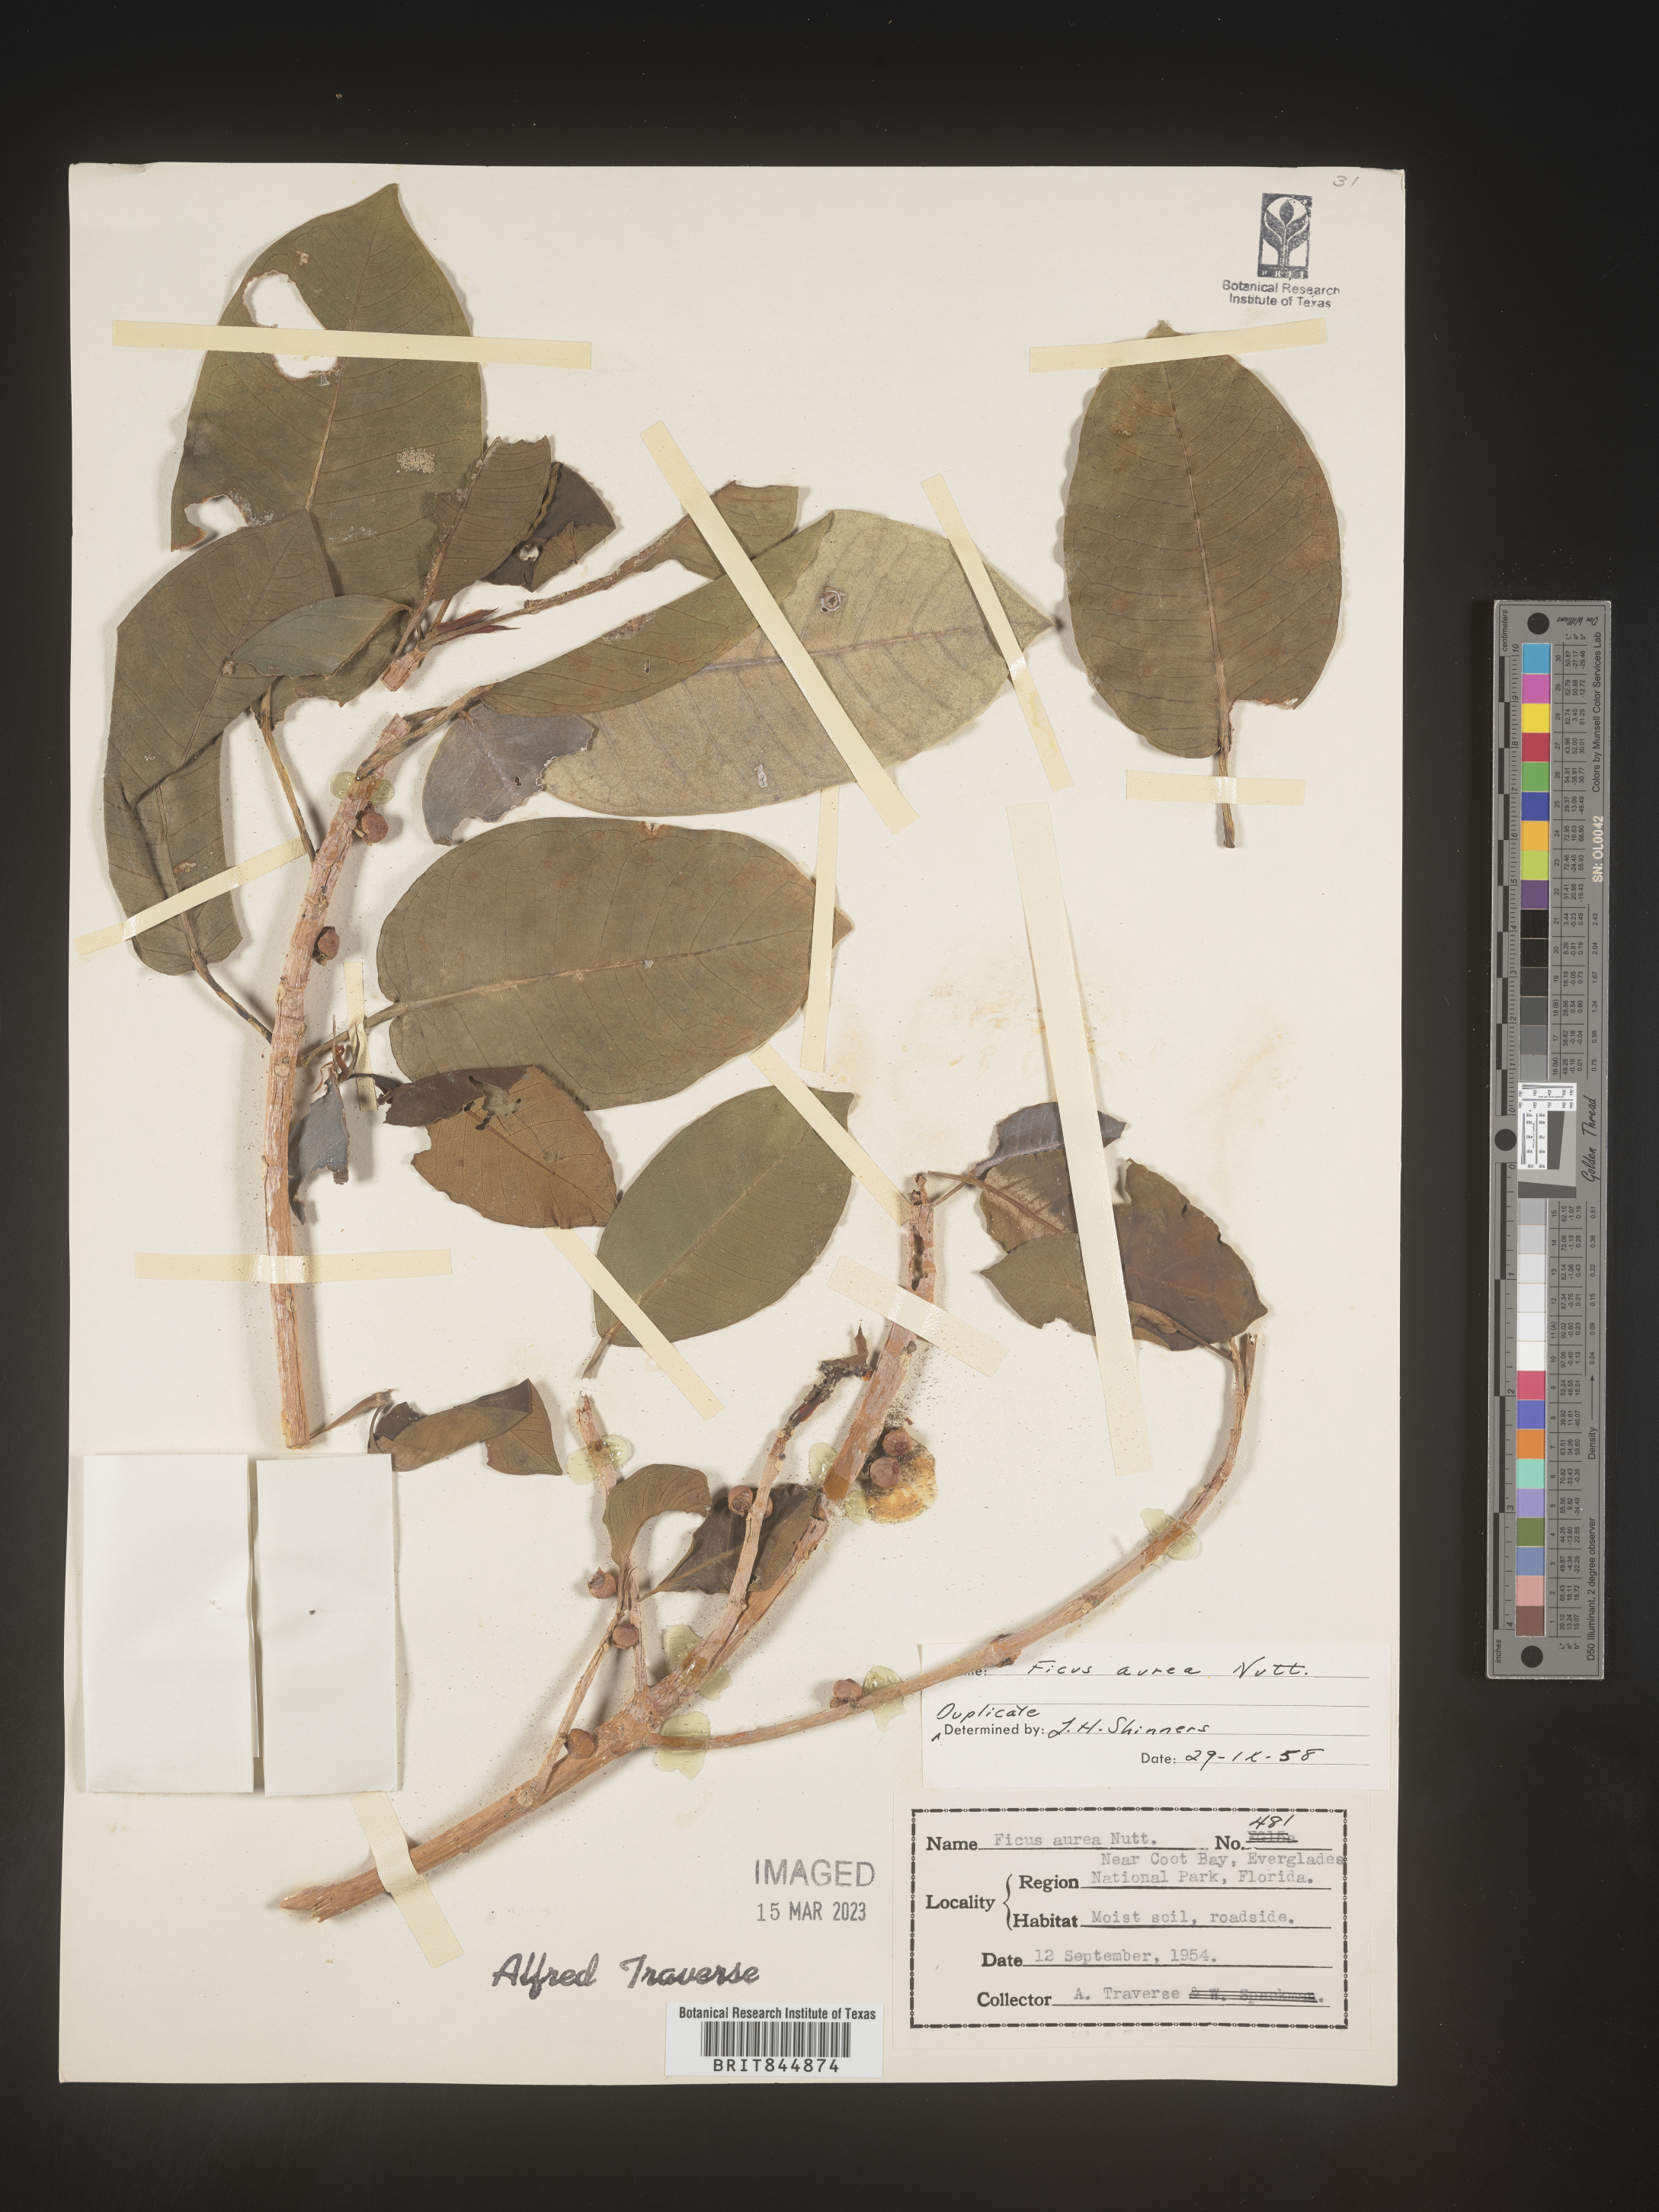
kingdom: Plantae
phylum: Tracheophyta
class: Magnoliopsida
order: Rosales
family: Moraceae
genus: Ficus
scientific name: Ficus
